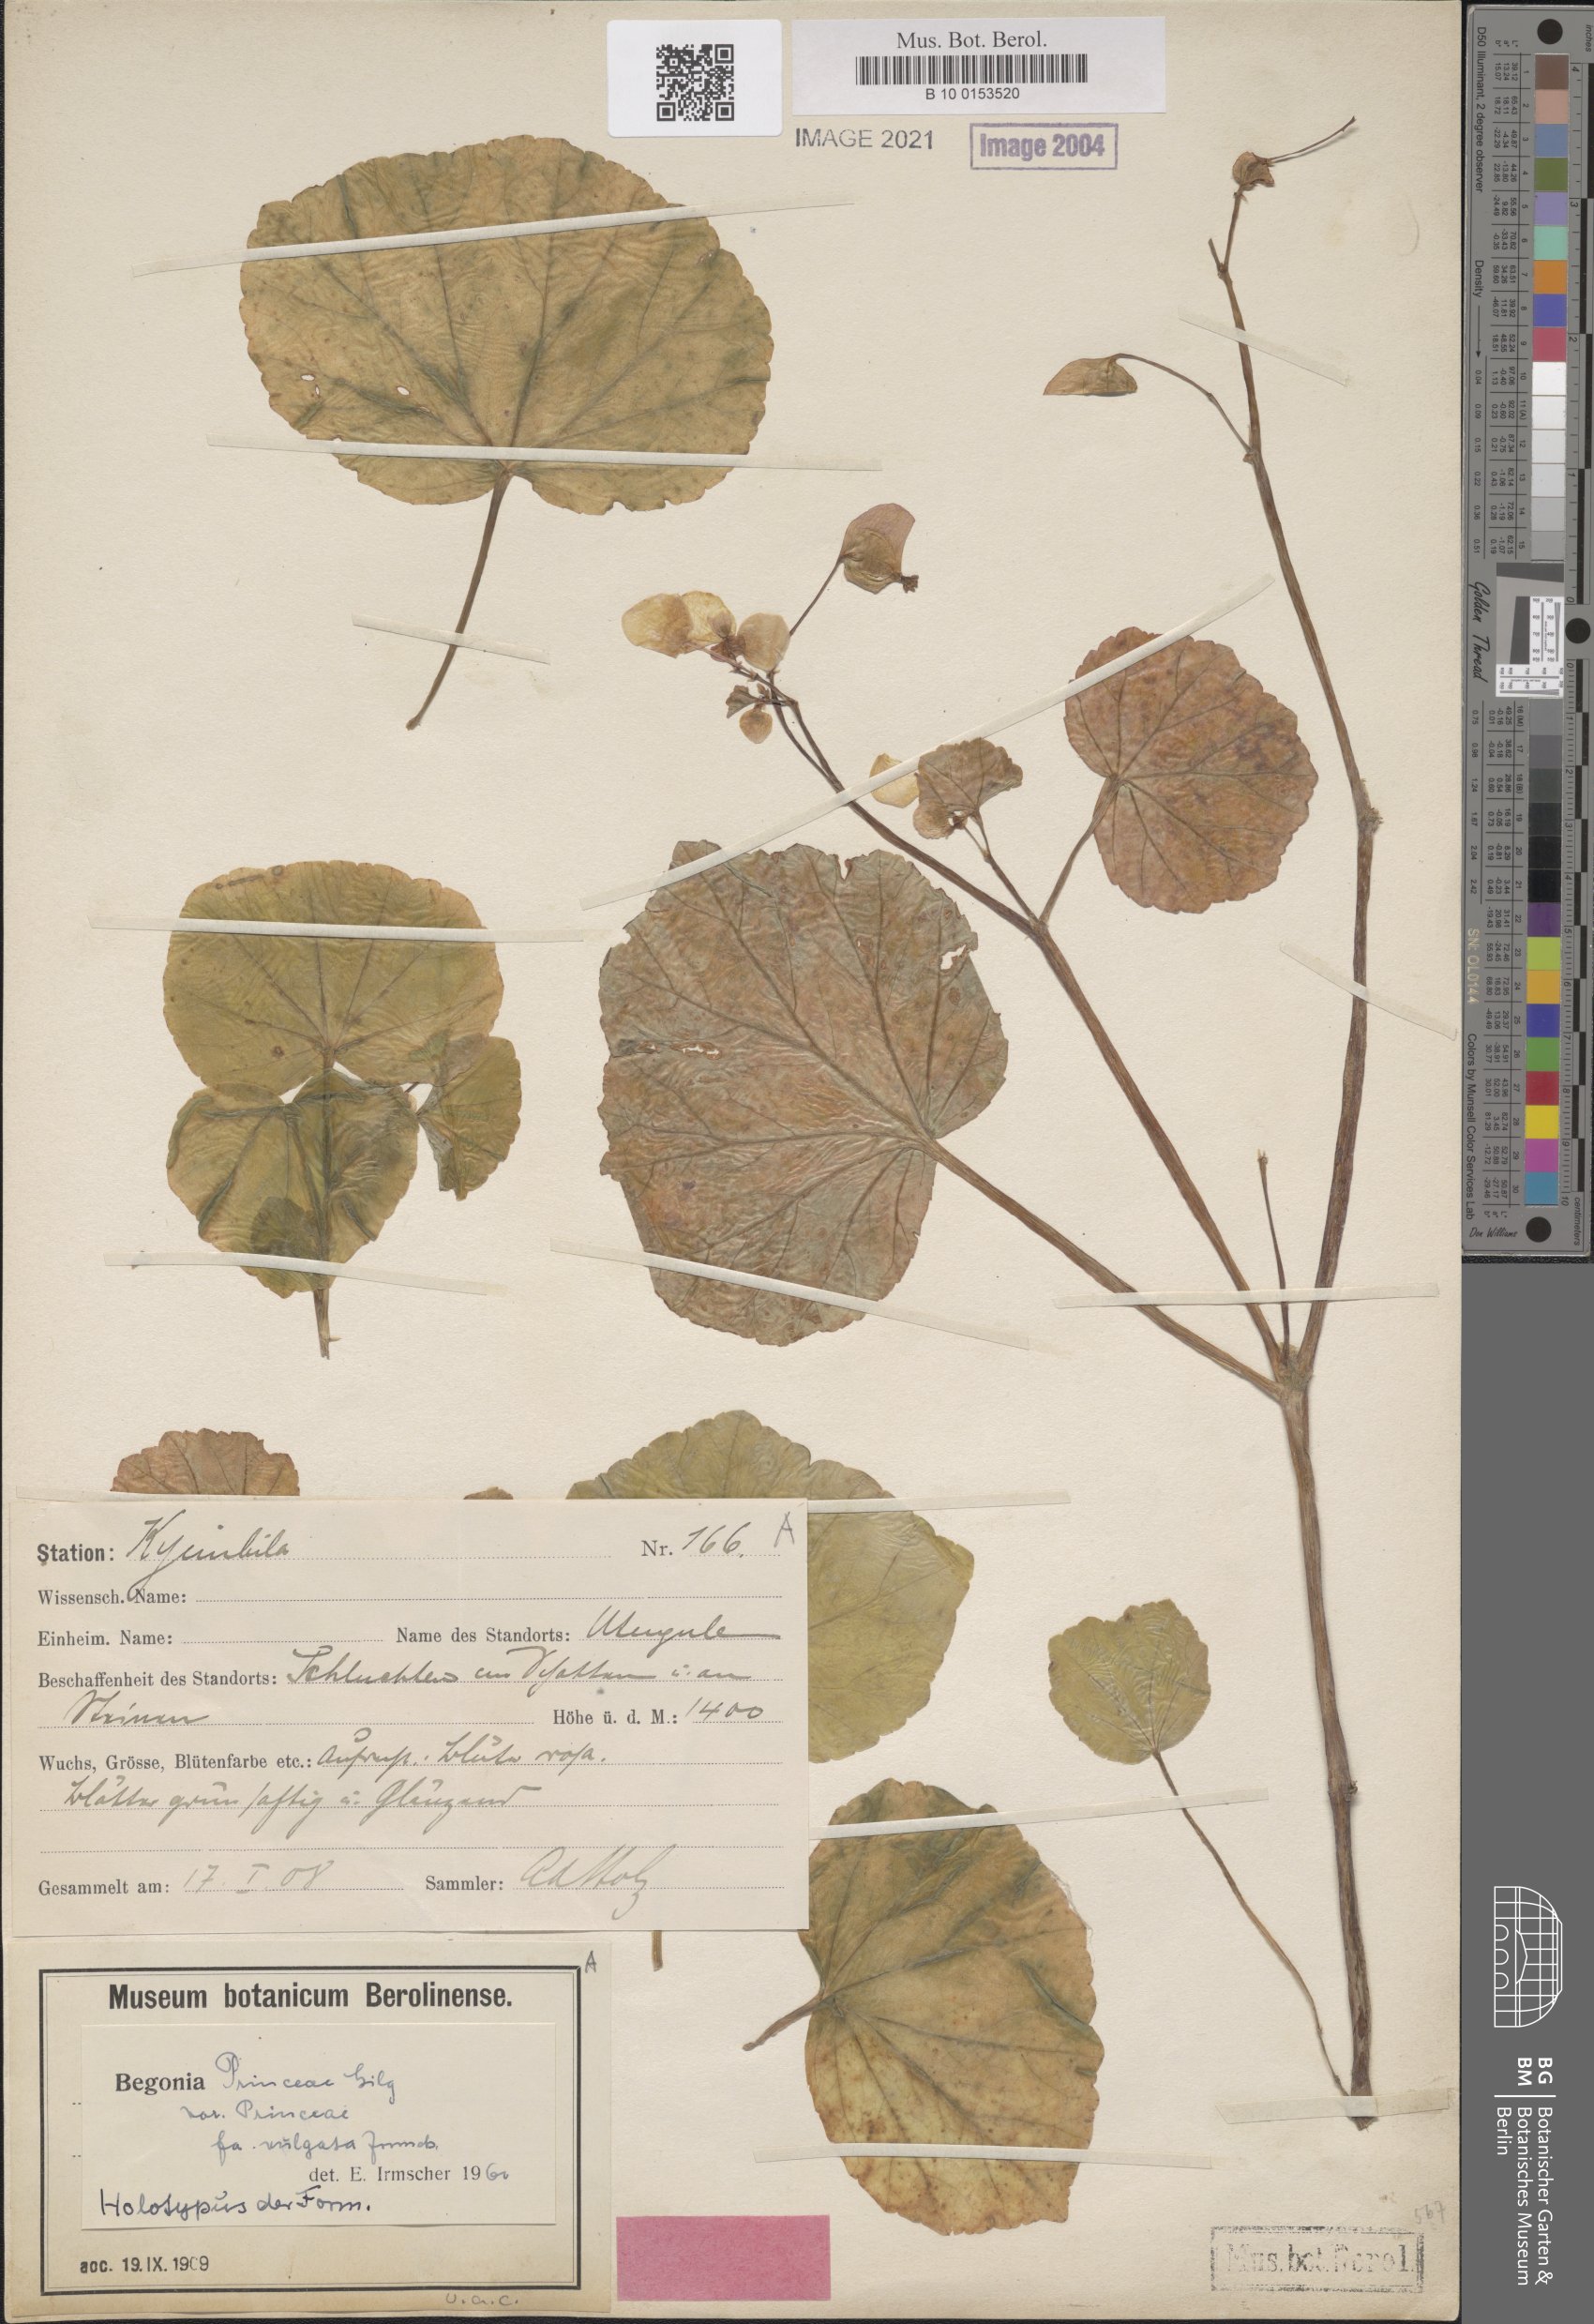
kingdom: Plantae
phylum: Tracheophyta
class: Magnoliopsida
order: Cucurbitales
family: Begoniaceae
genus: Begonia
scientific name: Begonia princeae
